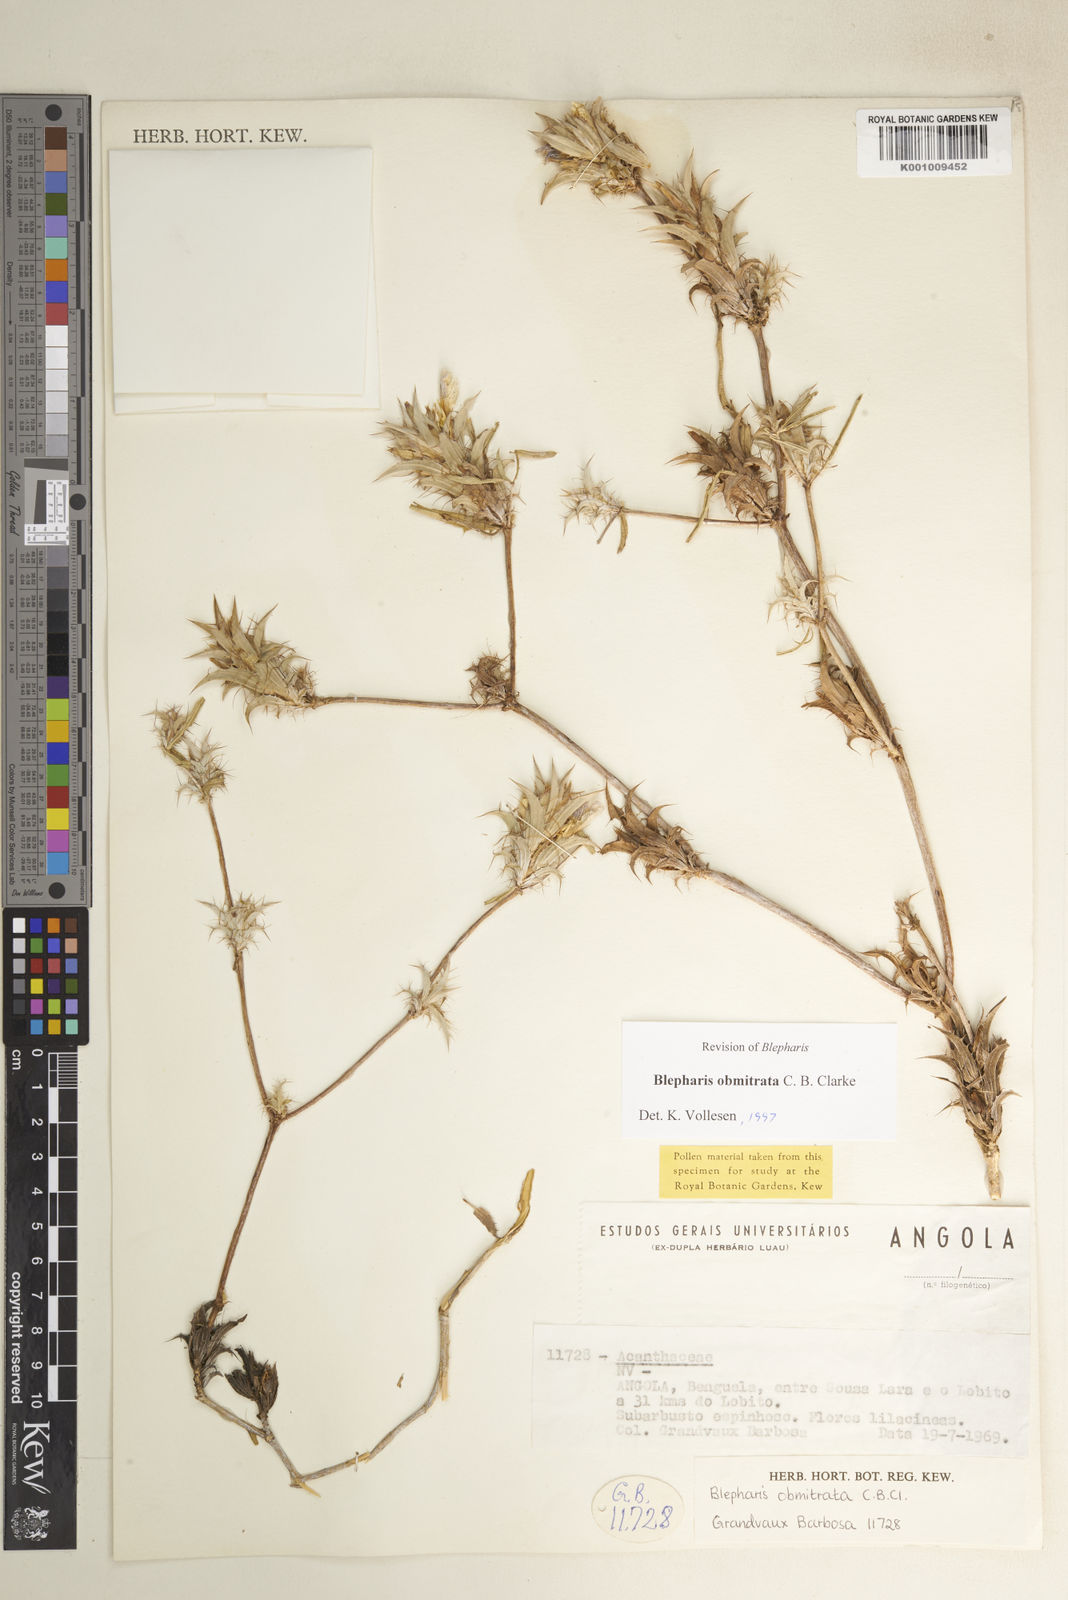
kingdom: Plantae
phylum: Tracheophyta
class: Magnoliopsida
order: Lamiales
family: Acanthaceae
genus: Blepharis
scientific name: Blepharis obmitrata
